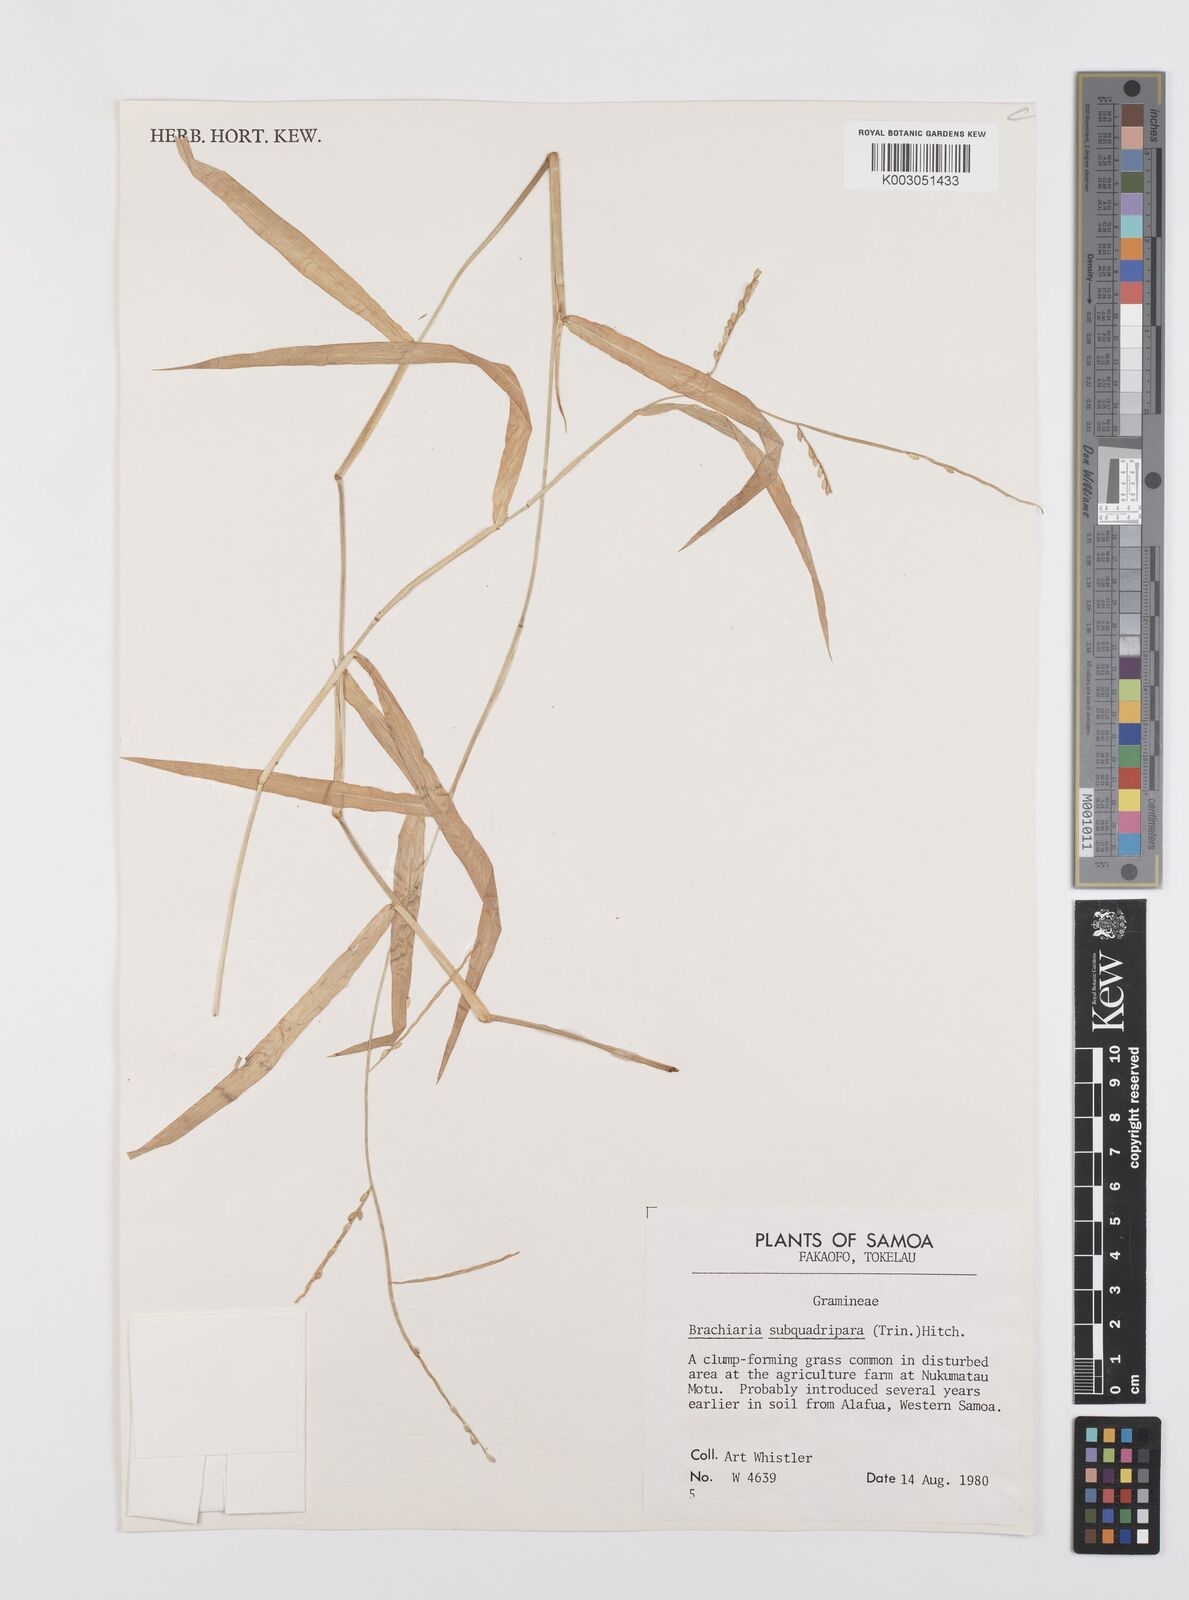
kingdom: Plantae
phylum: Tracheophyta
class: Liliopsida
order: Poales
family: Poaceae
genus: Urochloa
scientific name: Urochloa subquadripara
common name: Armgrass millet
